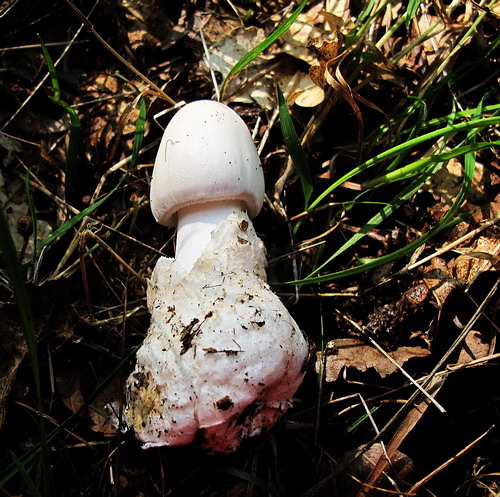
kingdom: Fungi
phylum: Basidiomycota
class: Agaricomycetes
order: Agaricales
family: Amanitaceae
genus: Amanita
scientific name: Amanita virosa
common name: snehvid fluesvamp
